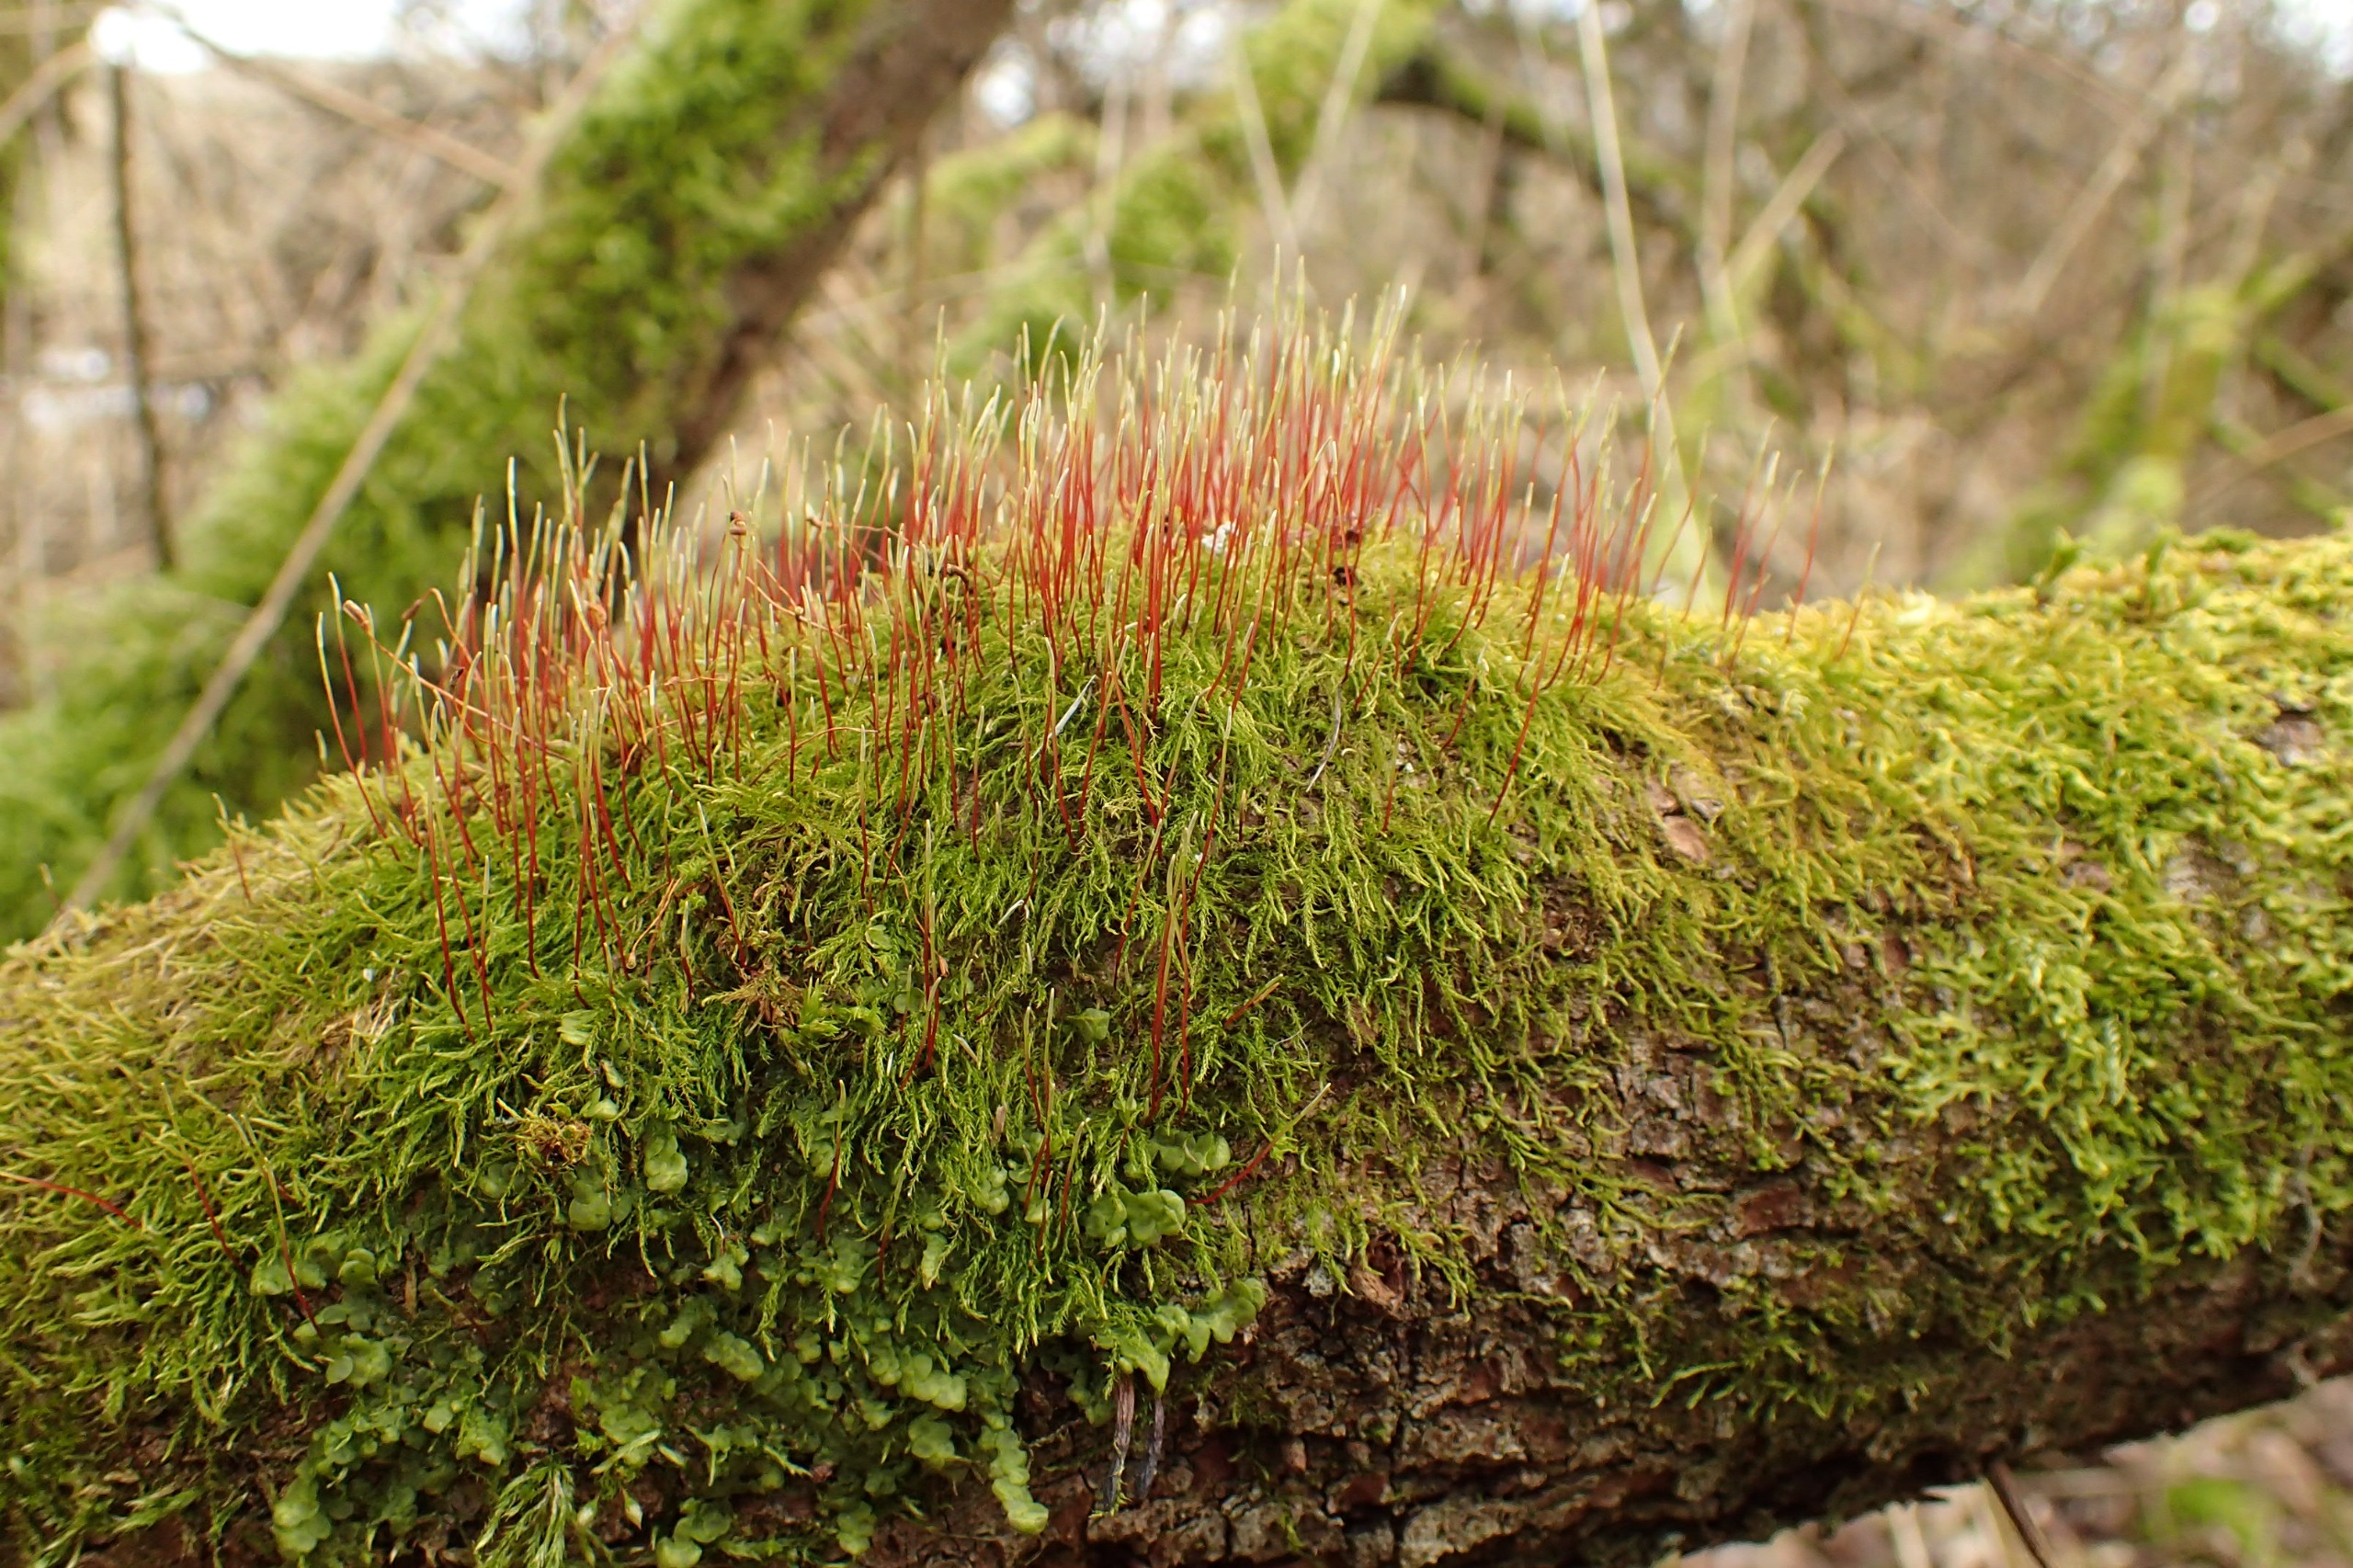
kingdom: Plantae
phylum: Bryophyta
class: Bryopsida
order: Hypnales
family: Amblystegiaceae
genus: Amblystegium
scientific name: Amblystegium serpens
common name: Almindelig krybmos
